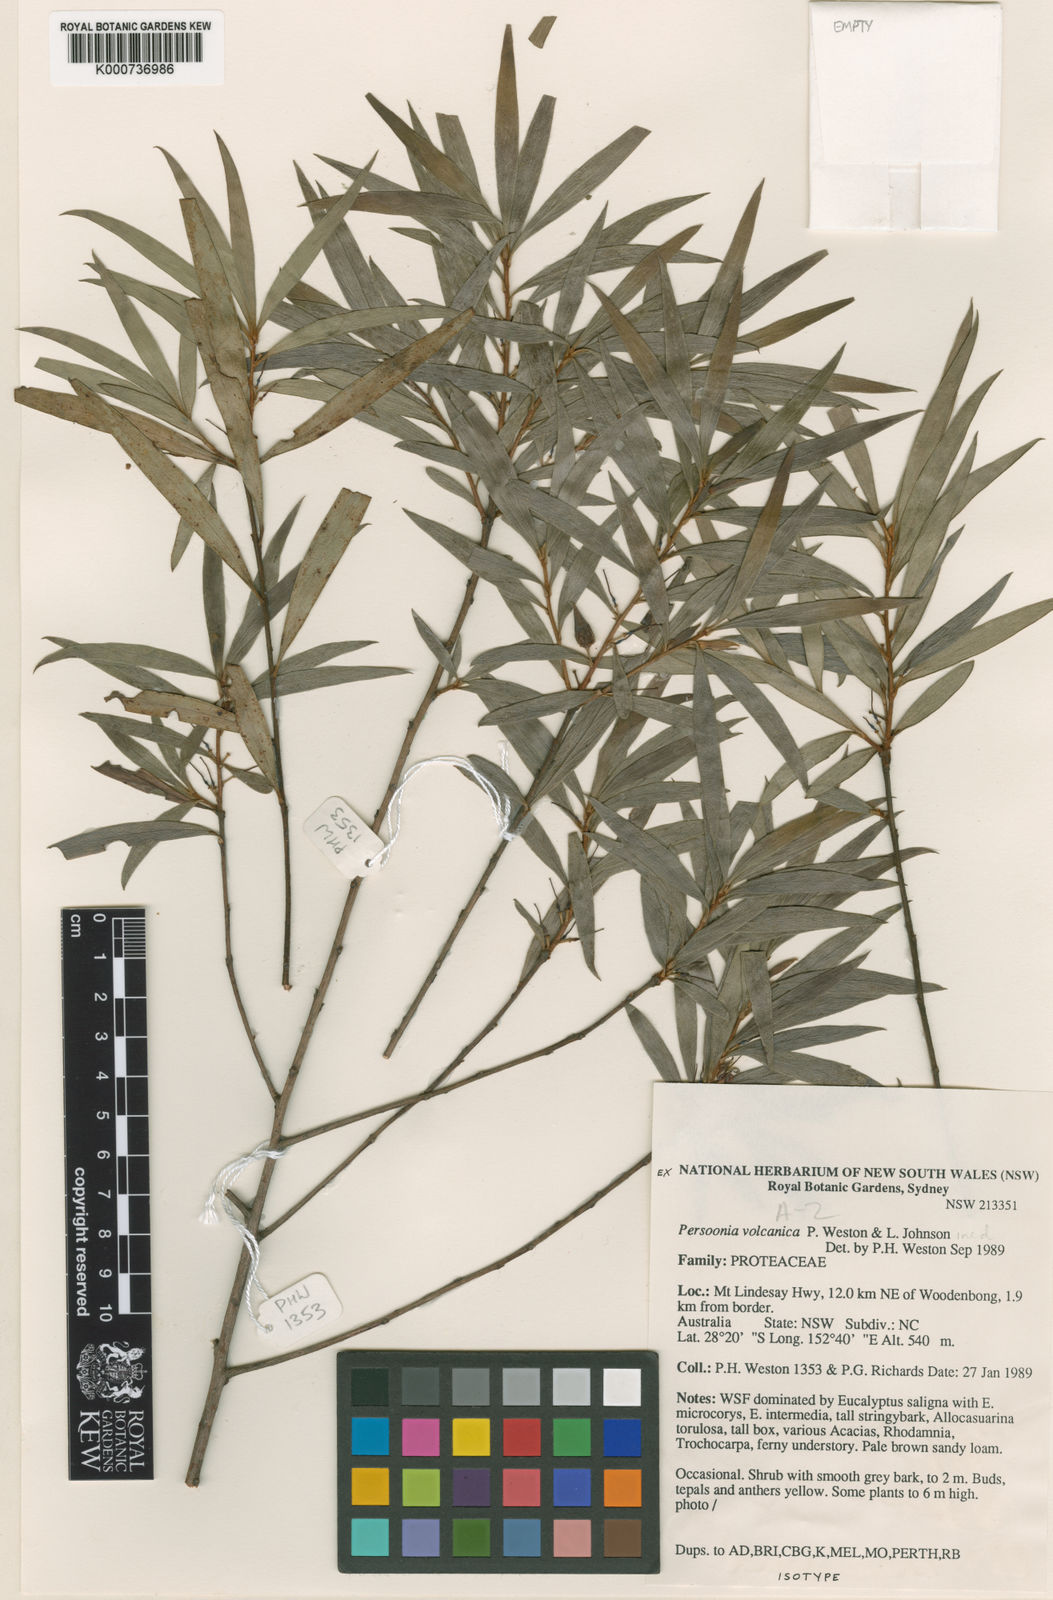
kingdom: Plantae
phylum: Tracheophyta
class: Magnoliopsida
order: Proteales
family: Proteaceae
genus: Persoonia
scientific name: Persoonia volcanica
